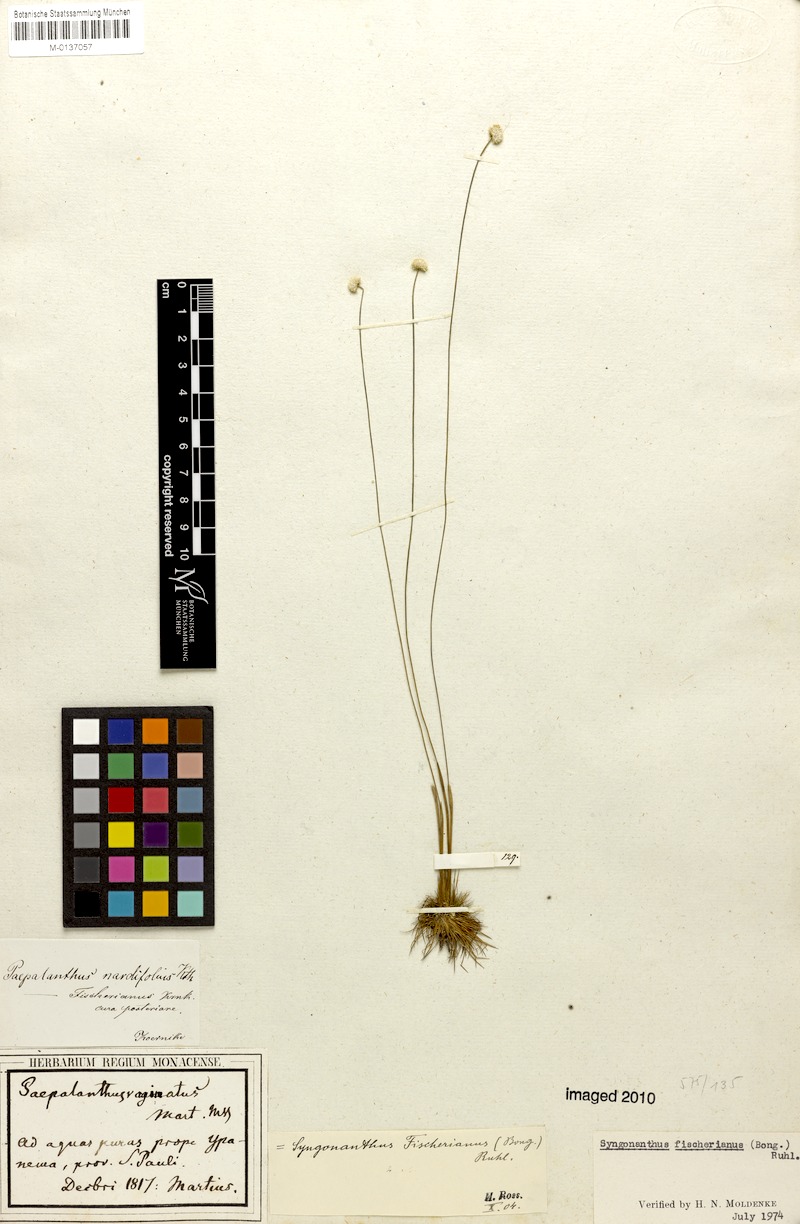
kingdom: Plantae
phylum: Tracheophyta
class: Liliopsida
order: Poales
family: Eriocaulaceae
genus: Syngonanthus
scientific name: Syngonanthus fischerianus
